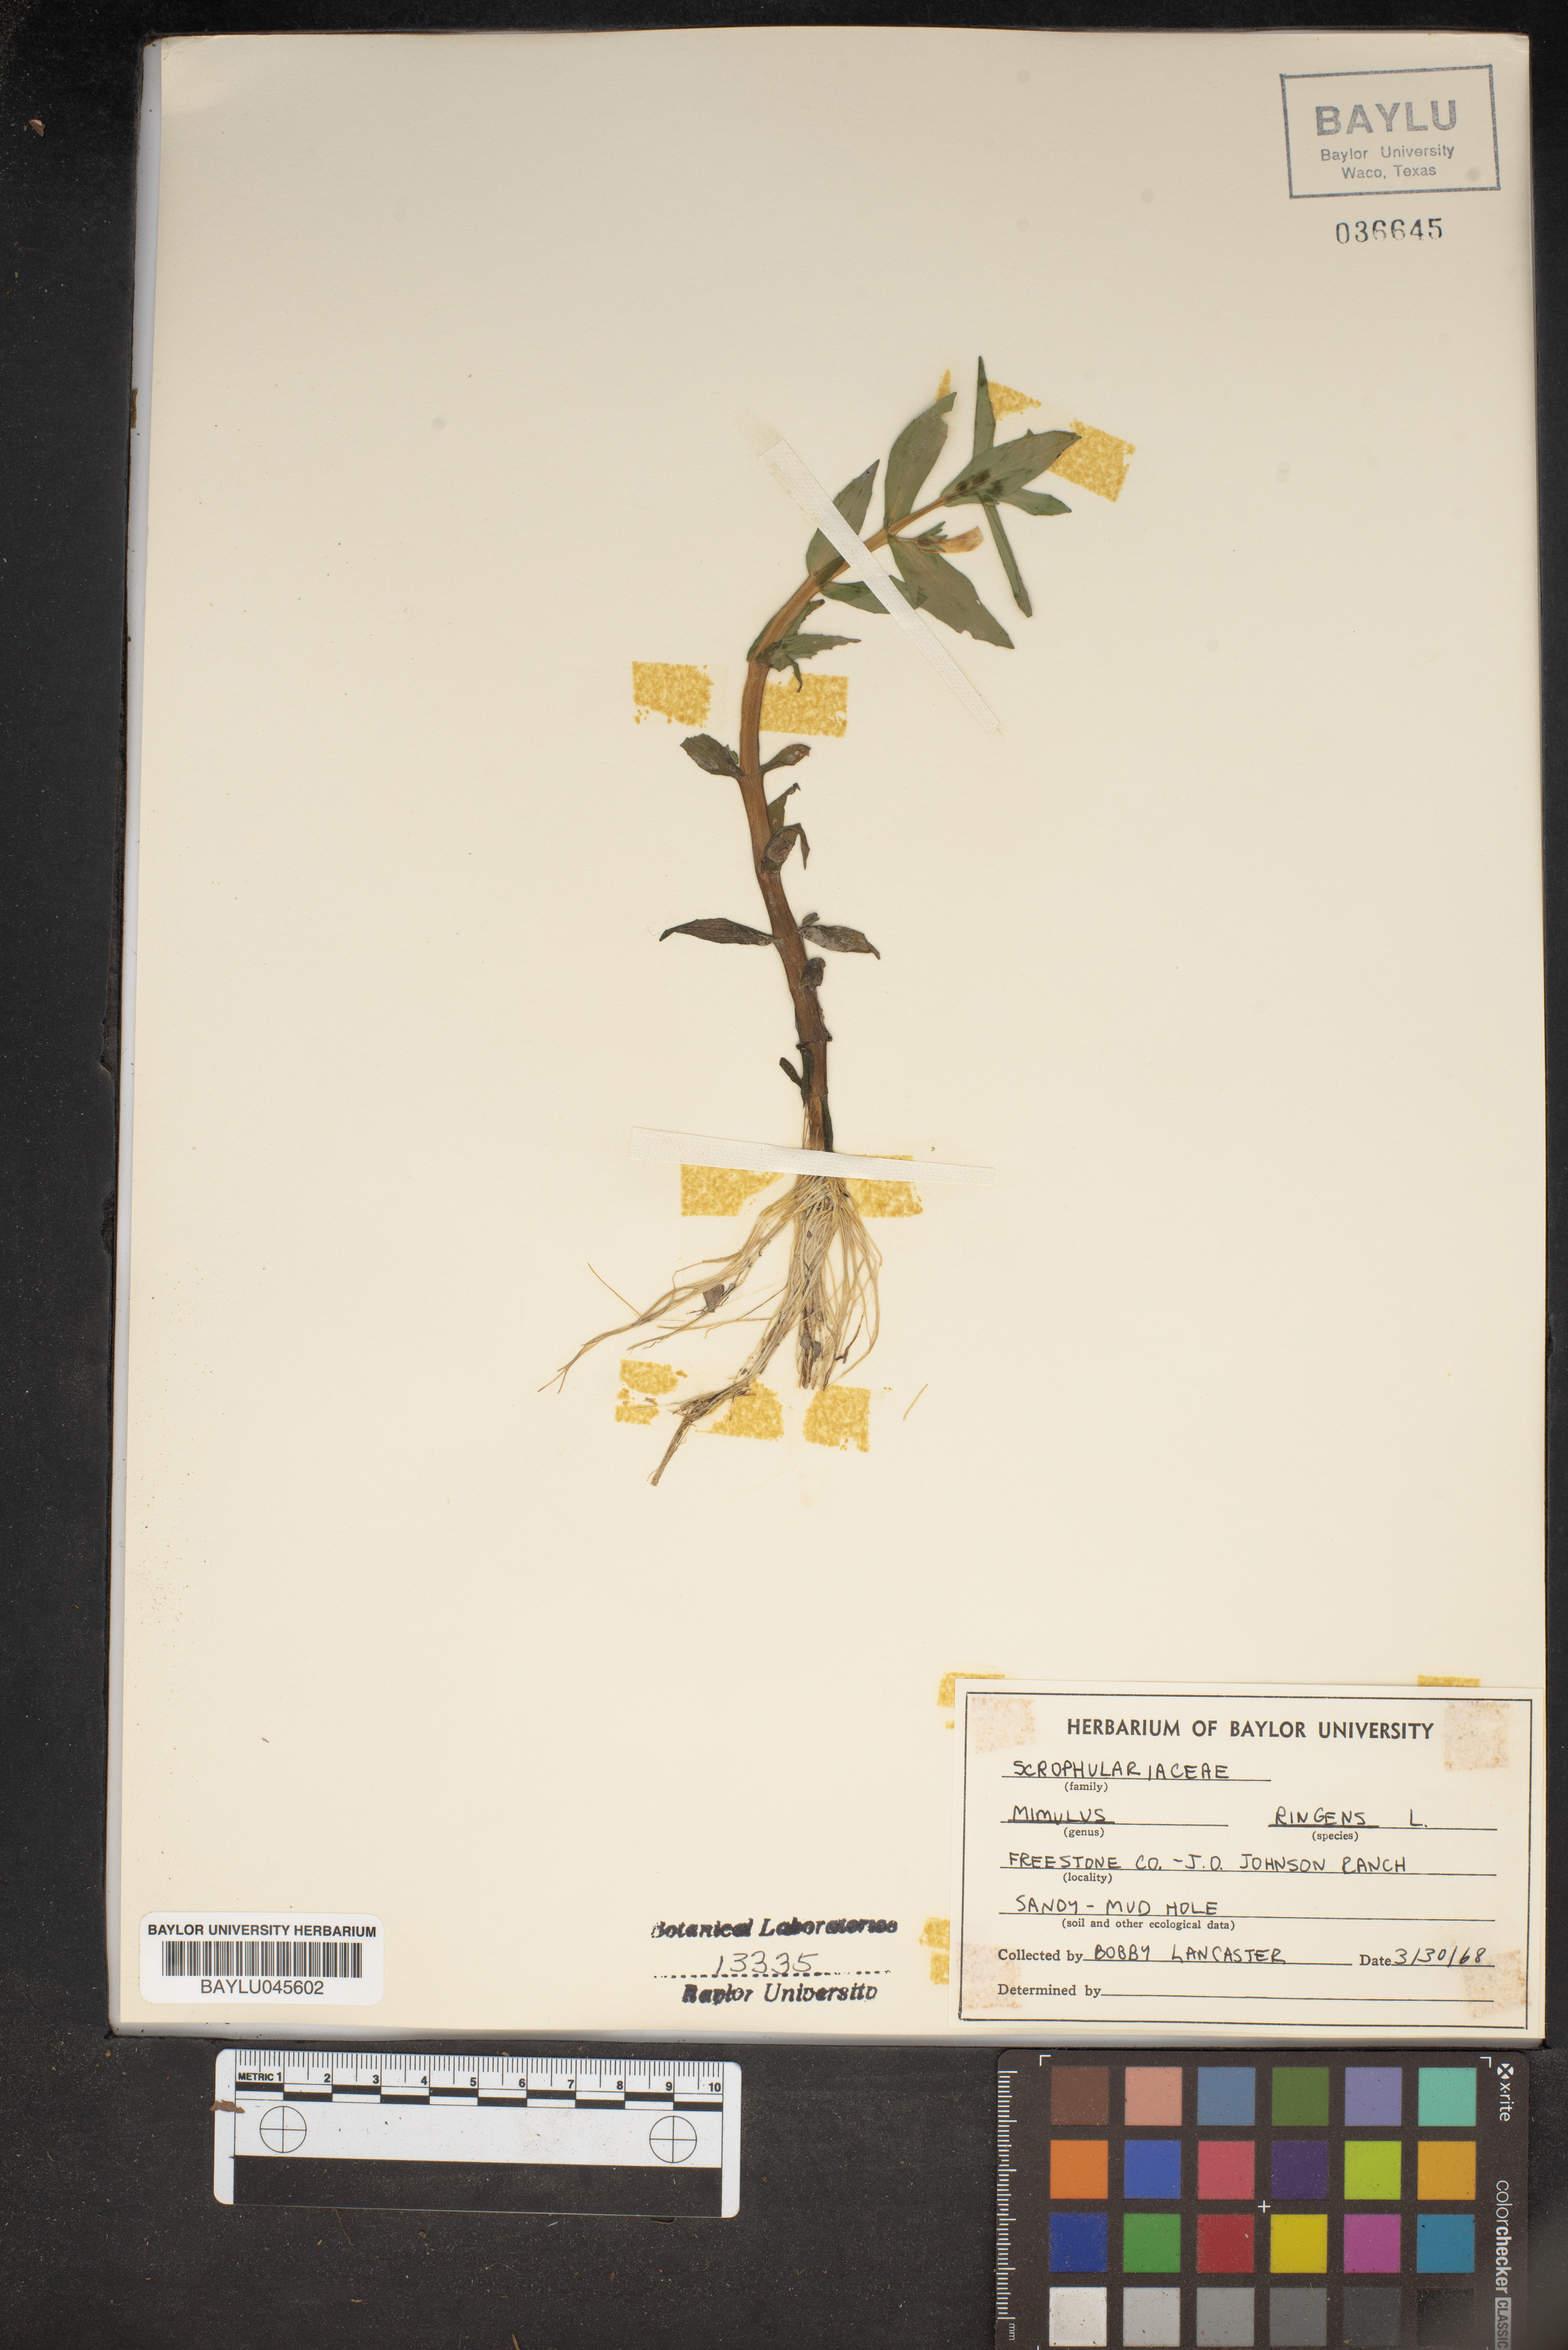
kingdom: Plantae
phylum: Tracheophyta
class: Magnoliopsida
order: Lamiales
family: Phrymaceae
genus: Mimulus
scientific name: Mimulus ringens
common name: Allegheny monkeyflower
